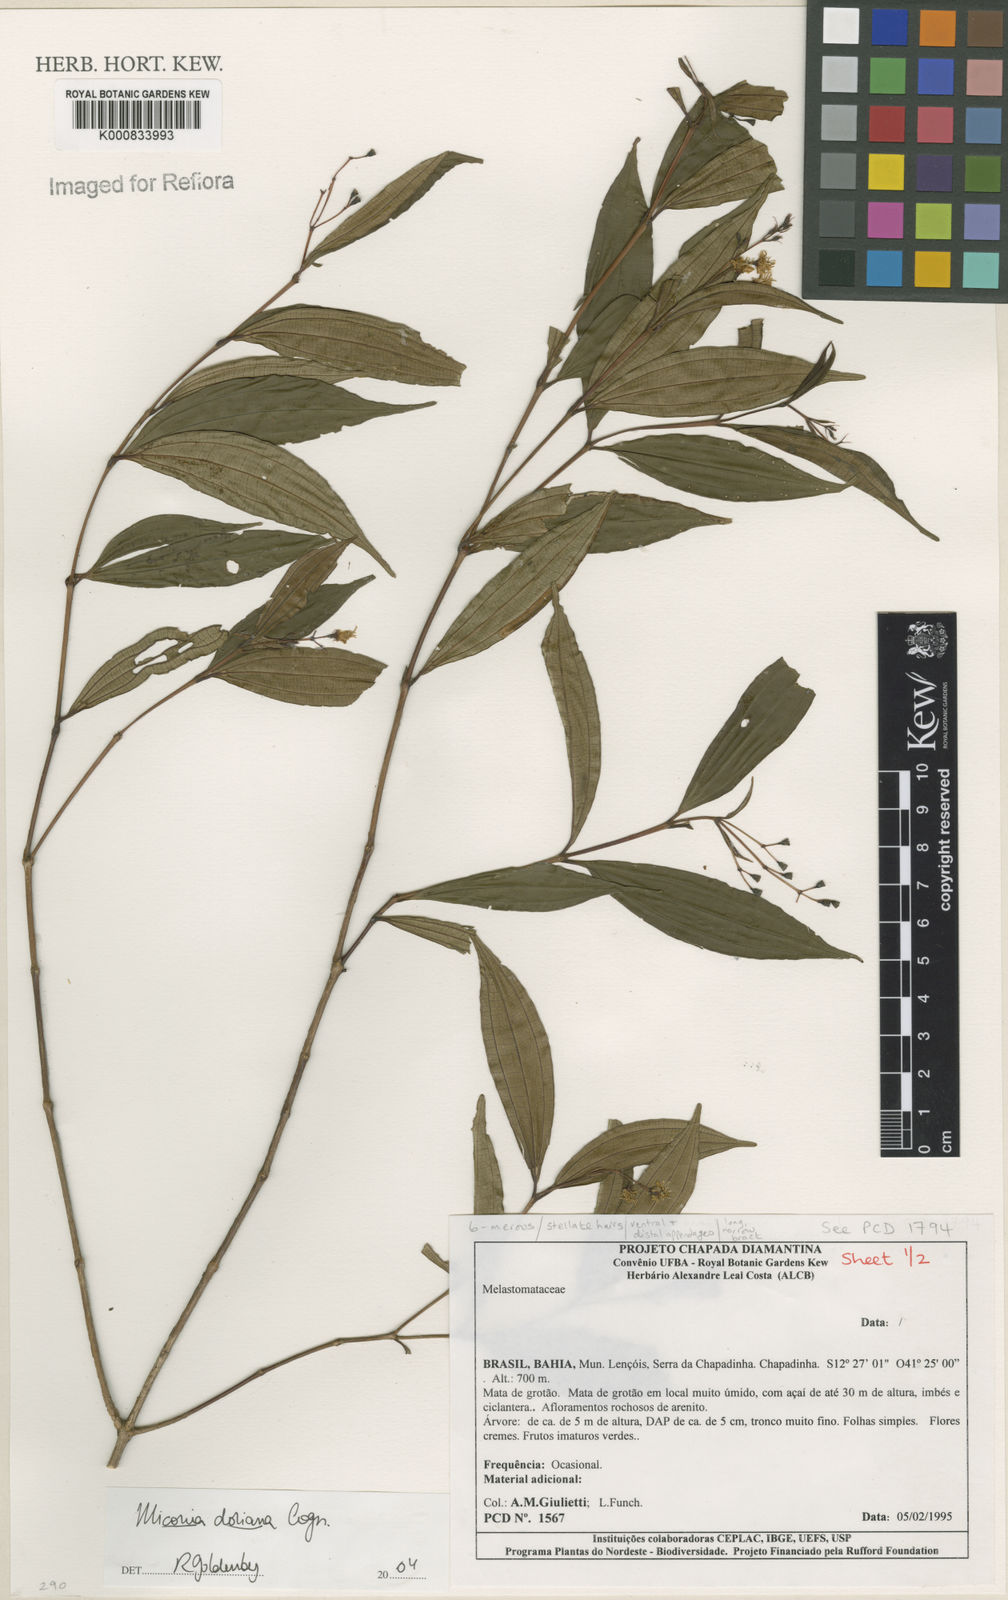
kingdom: Plantae
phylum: Tracheophyta
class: Magnoliopsida
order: Myrtales
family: Melastomataceae
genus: Miconia
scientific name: Miconia doriana
